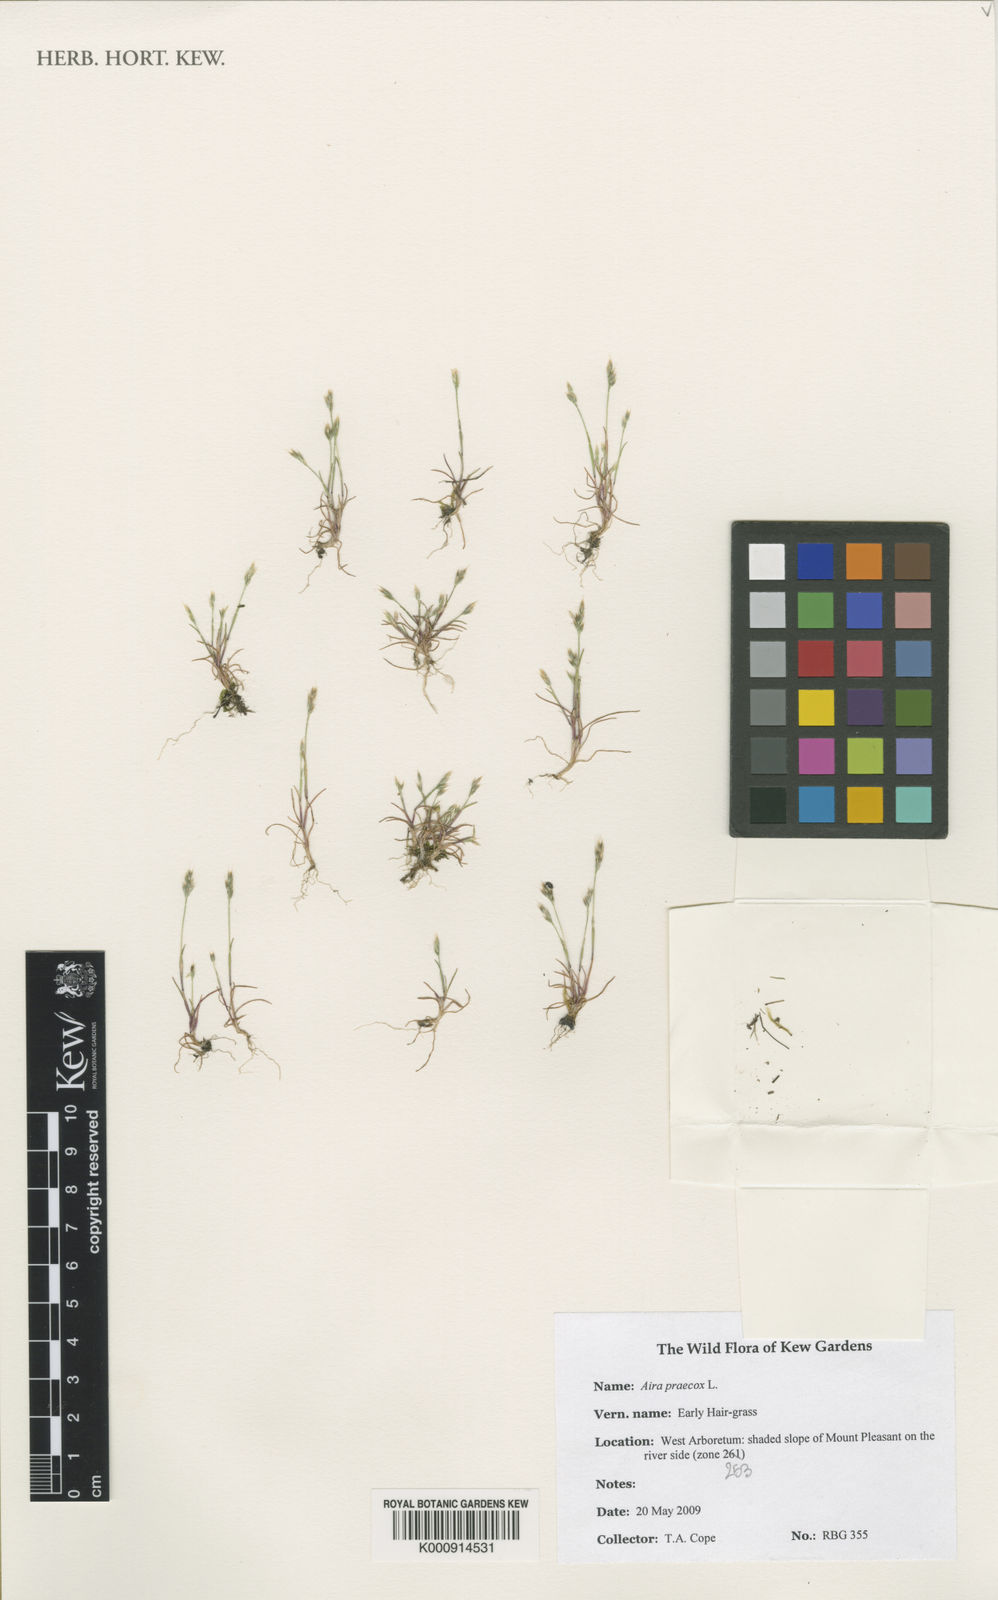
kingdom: Plantae
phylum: Tracheophyta
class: Liliopsida
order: Poales
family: Poaceae
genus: Aira
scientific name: Aira praecox
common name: Early hair-grass
